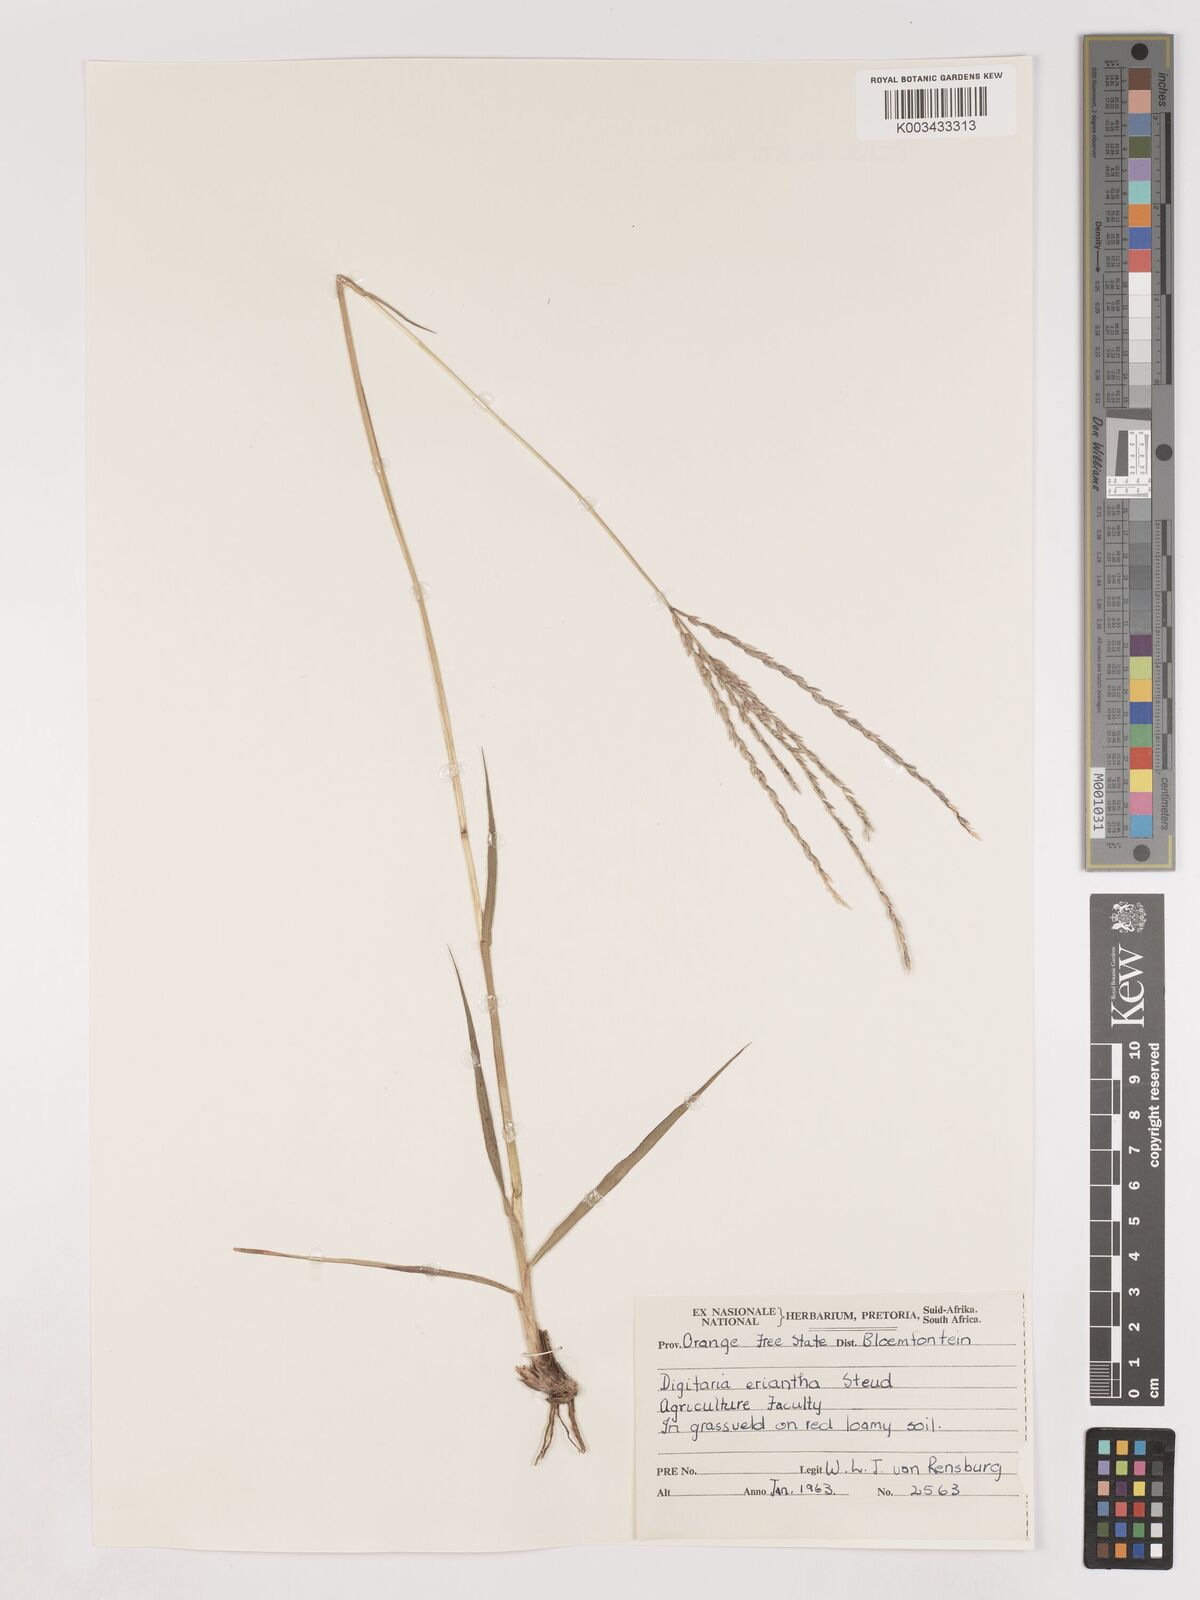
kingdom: Plantae
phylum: Tracheophyta
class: Liliopsida
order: Poales
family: Poaceae
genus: Digitaria
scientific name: Digitaria eriantha
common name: Digitgrass
